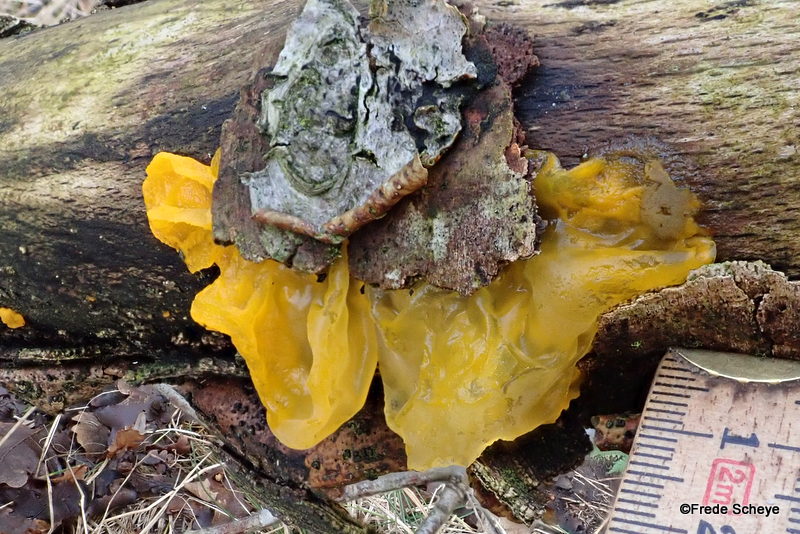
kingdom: Fungi
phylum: Basidiomycota
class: Tremellomycetes
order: Tremellales
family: Tremellaceae
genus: Tremella
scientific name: Tremella mesenterica
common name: gul bævresvamp
